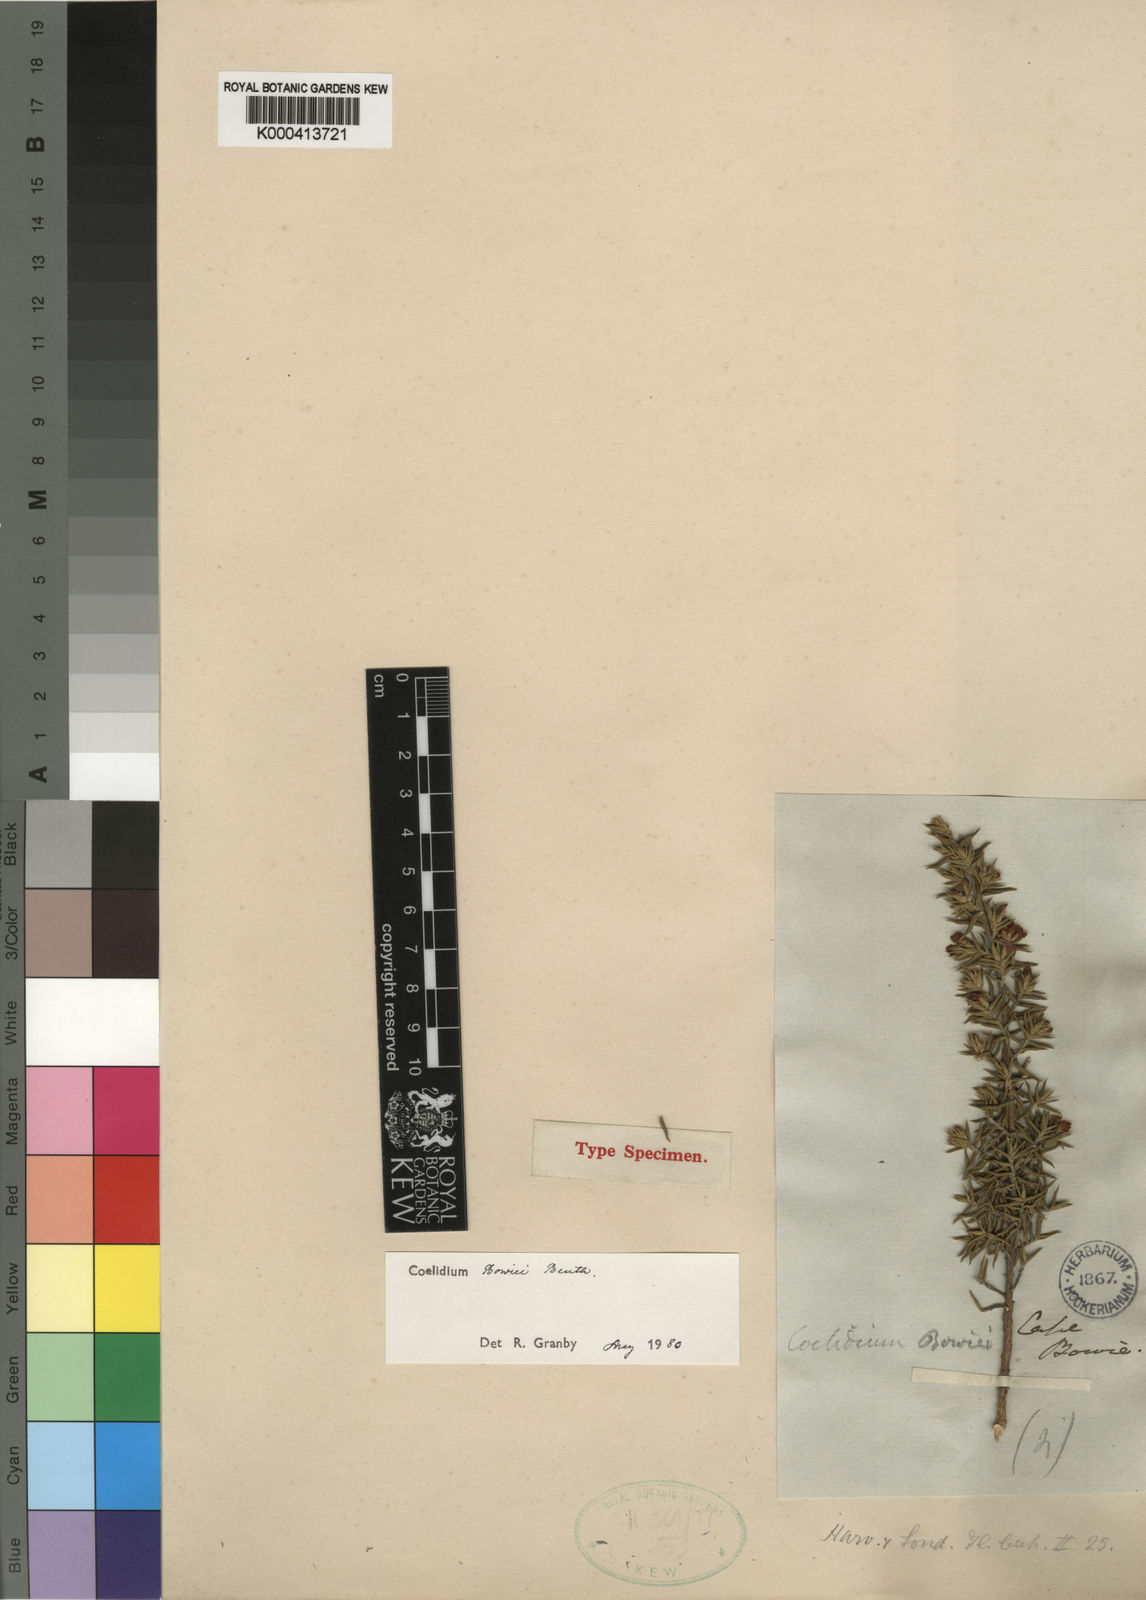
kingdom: Plantae
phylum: Tracheophyta
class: Magnoliopsida
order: Fabales
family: Fabaceae
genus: Amphithalea
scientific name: Amphithalea bowiei
